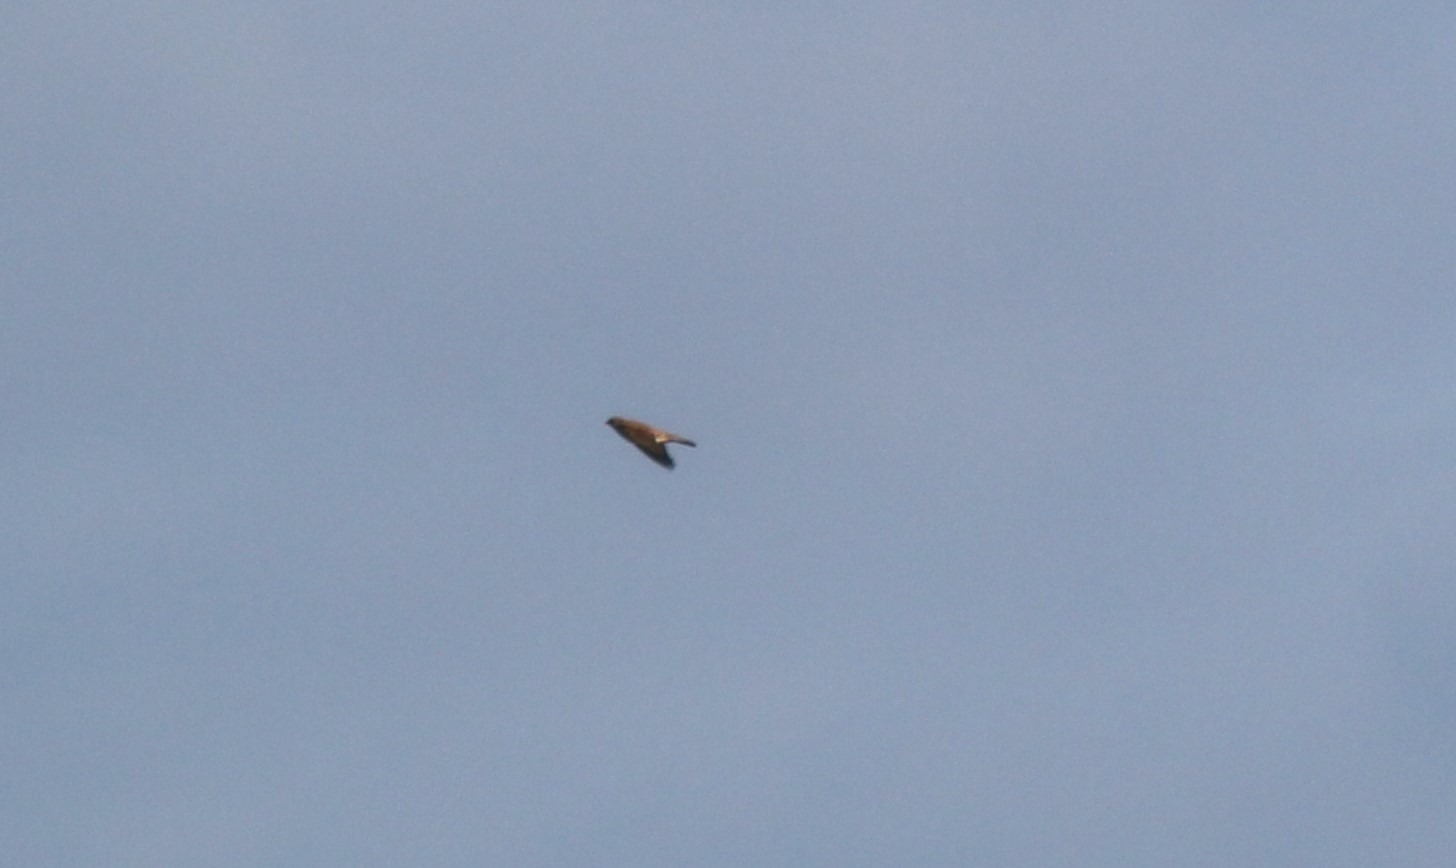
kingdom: Animalia
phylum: Chordata
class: Aves
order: Passeriformes
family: Alaudidae
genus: Alauda
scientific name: Alauda arvensis
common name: Sanglærke
